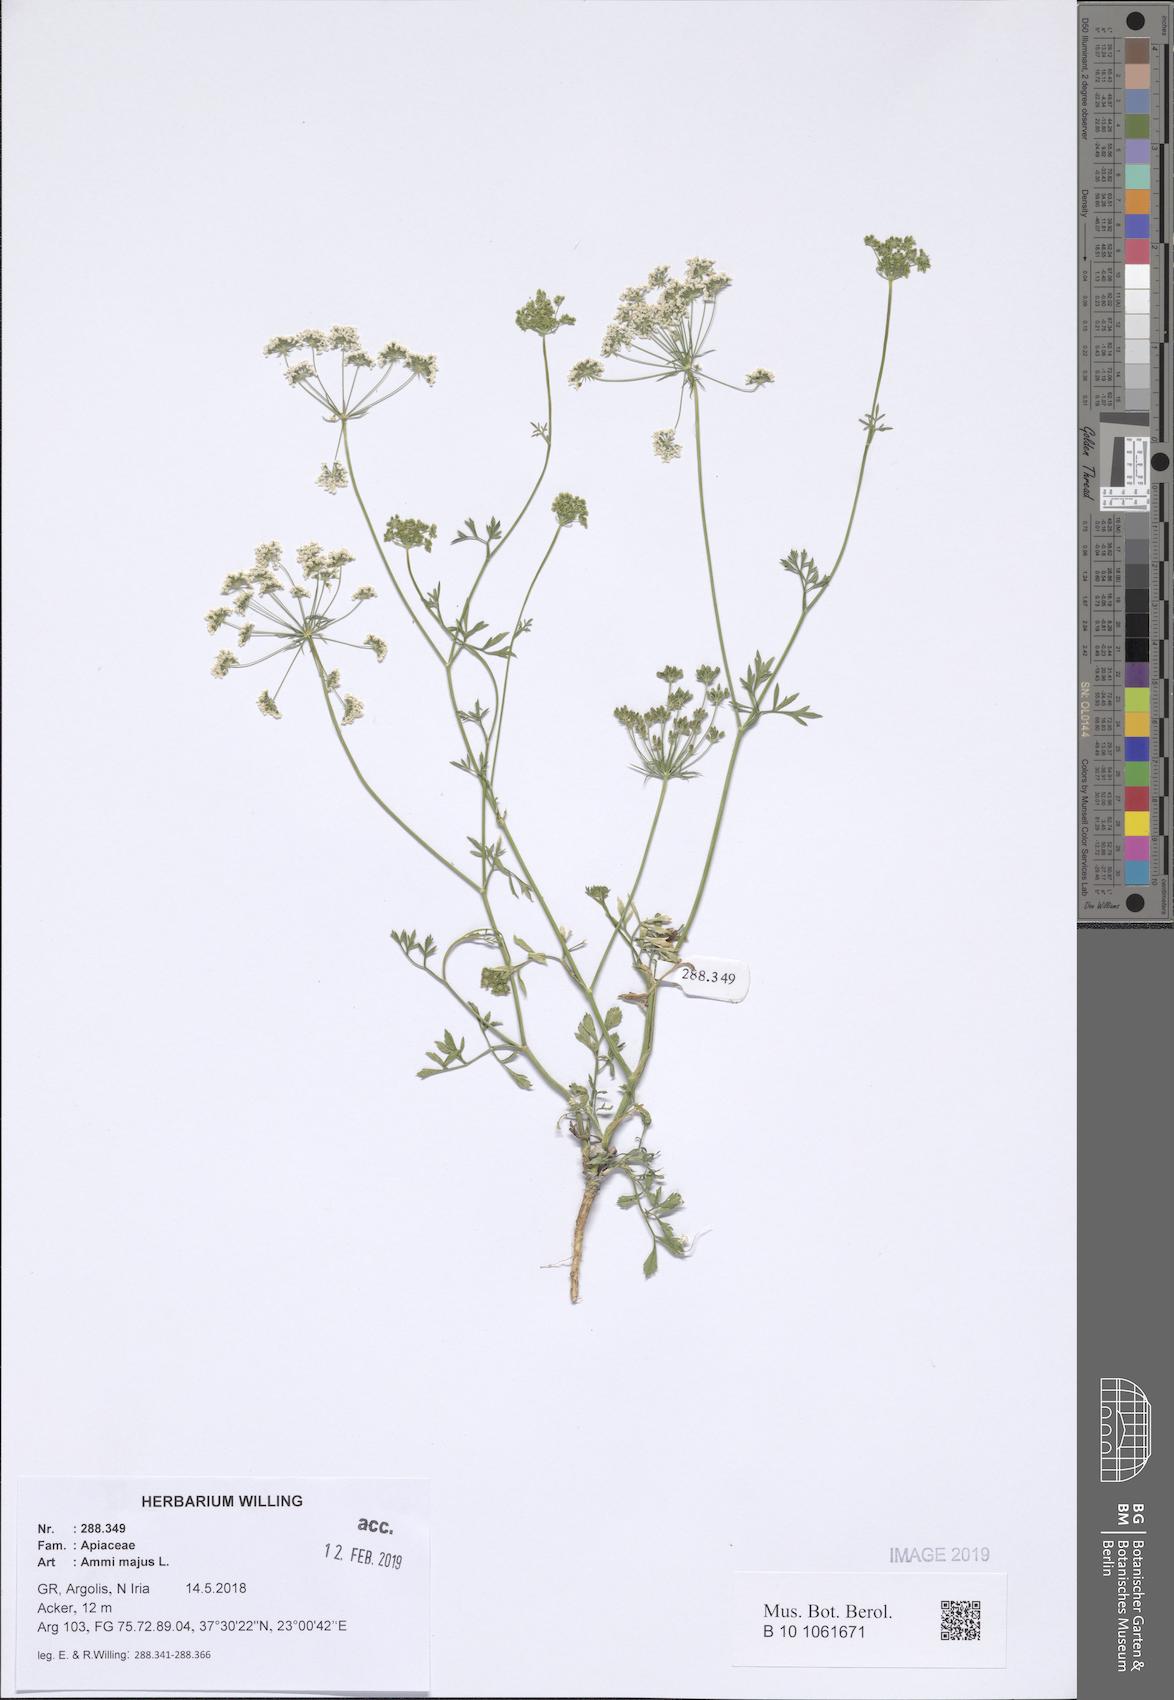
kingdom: Plantae
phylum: Tracheophyta
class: Magnoliopsida
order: Apiales
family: Apiaceae
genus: Ammi
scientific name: Ammi majus
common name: Bullwort
